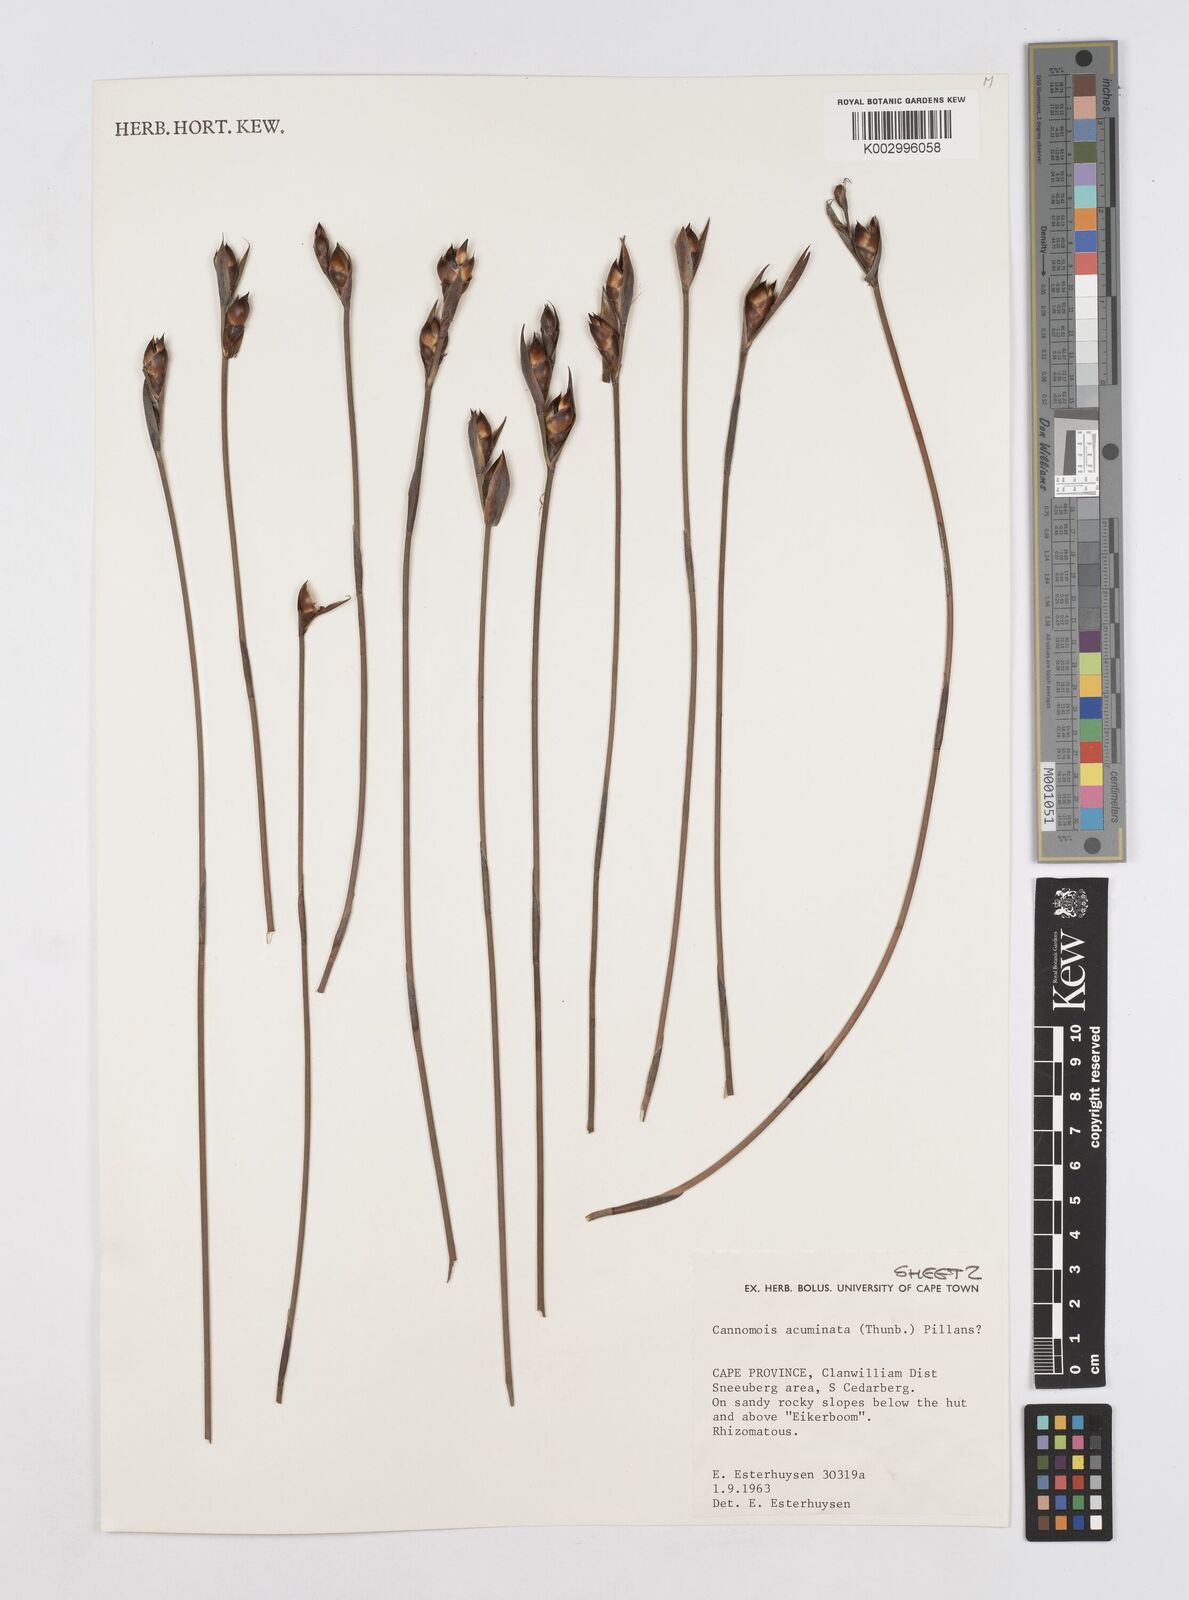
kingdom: Plantae
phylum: Tracheophyta
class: Liliopsida
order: Poales
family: Restionaceae
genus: Cannomois
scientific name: Cannomois parviflora
